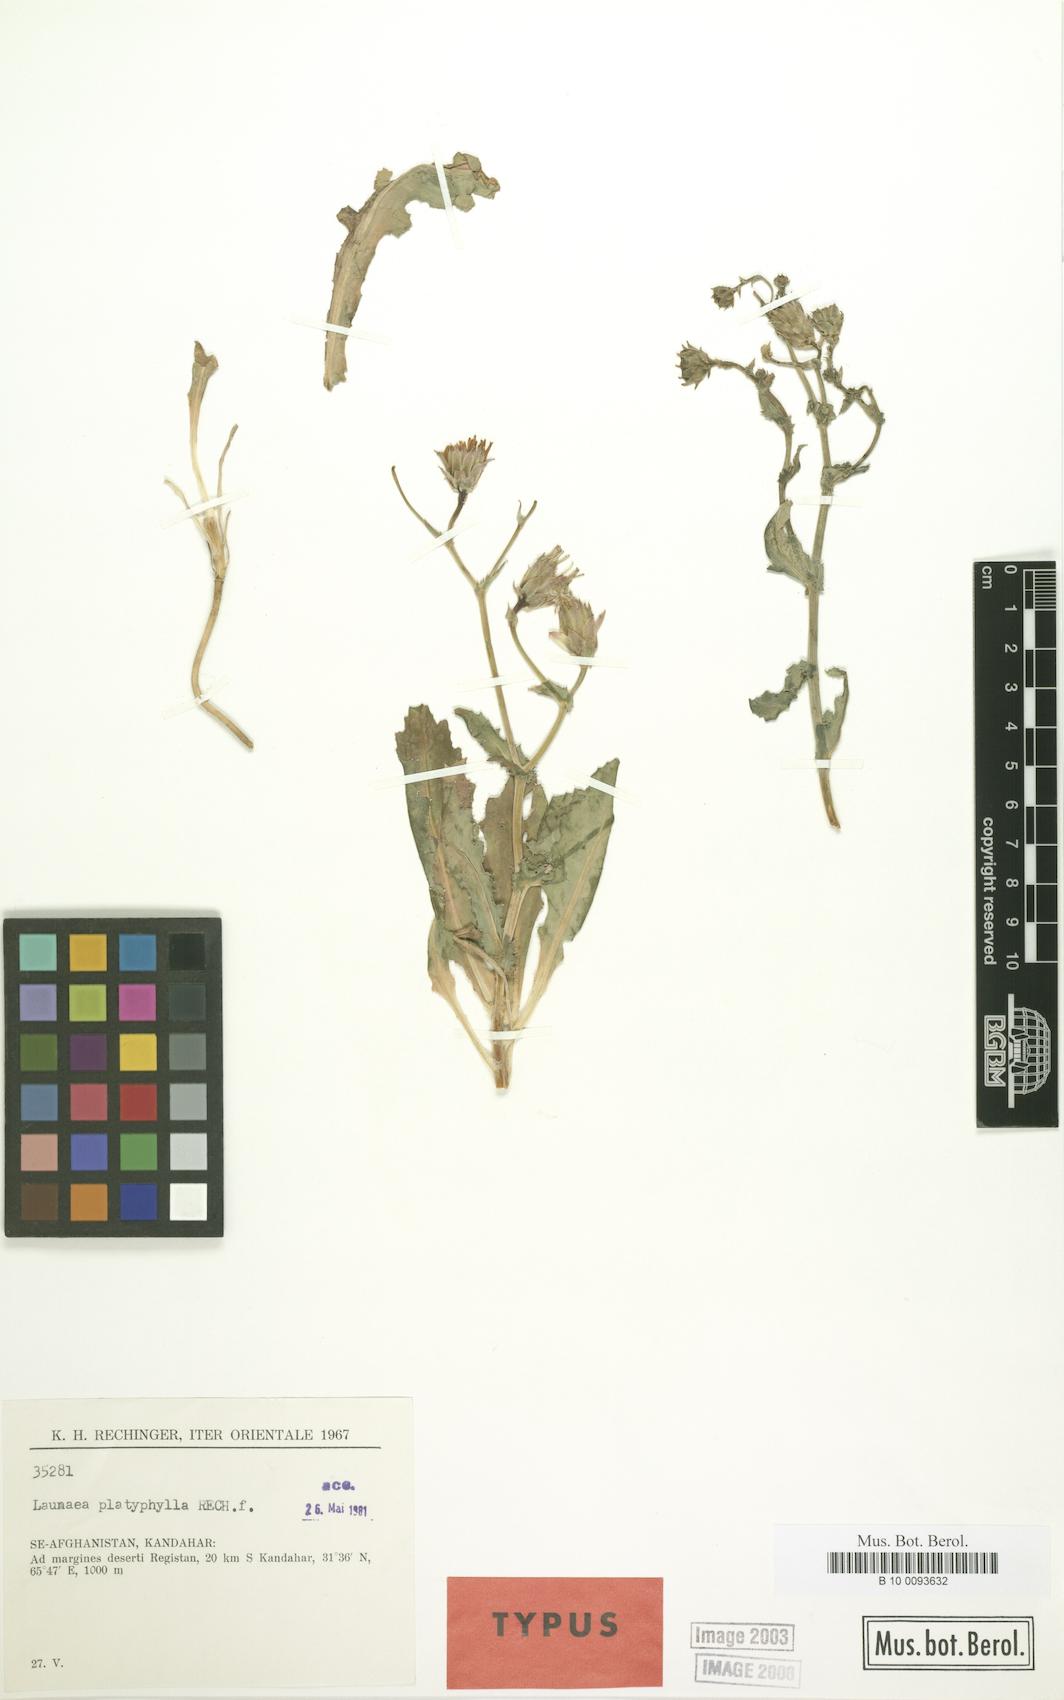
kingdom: Plantae
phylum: Tracheophyta
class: Magnoliopsida
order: Asterales
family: Asteraceae
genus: Launaea
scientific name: Launaea platyphylla
